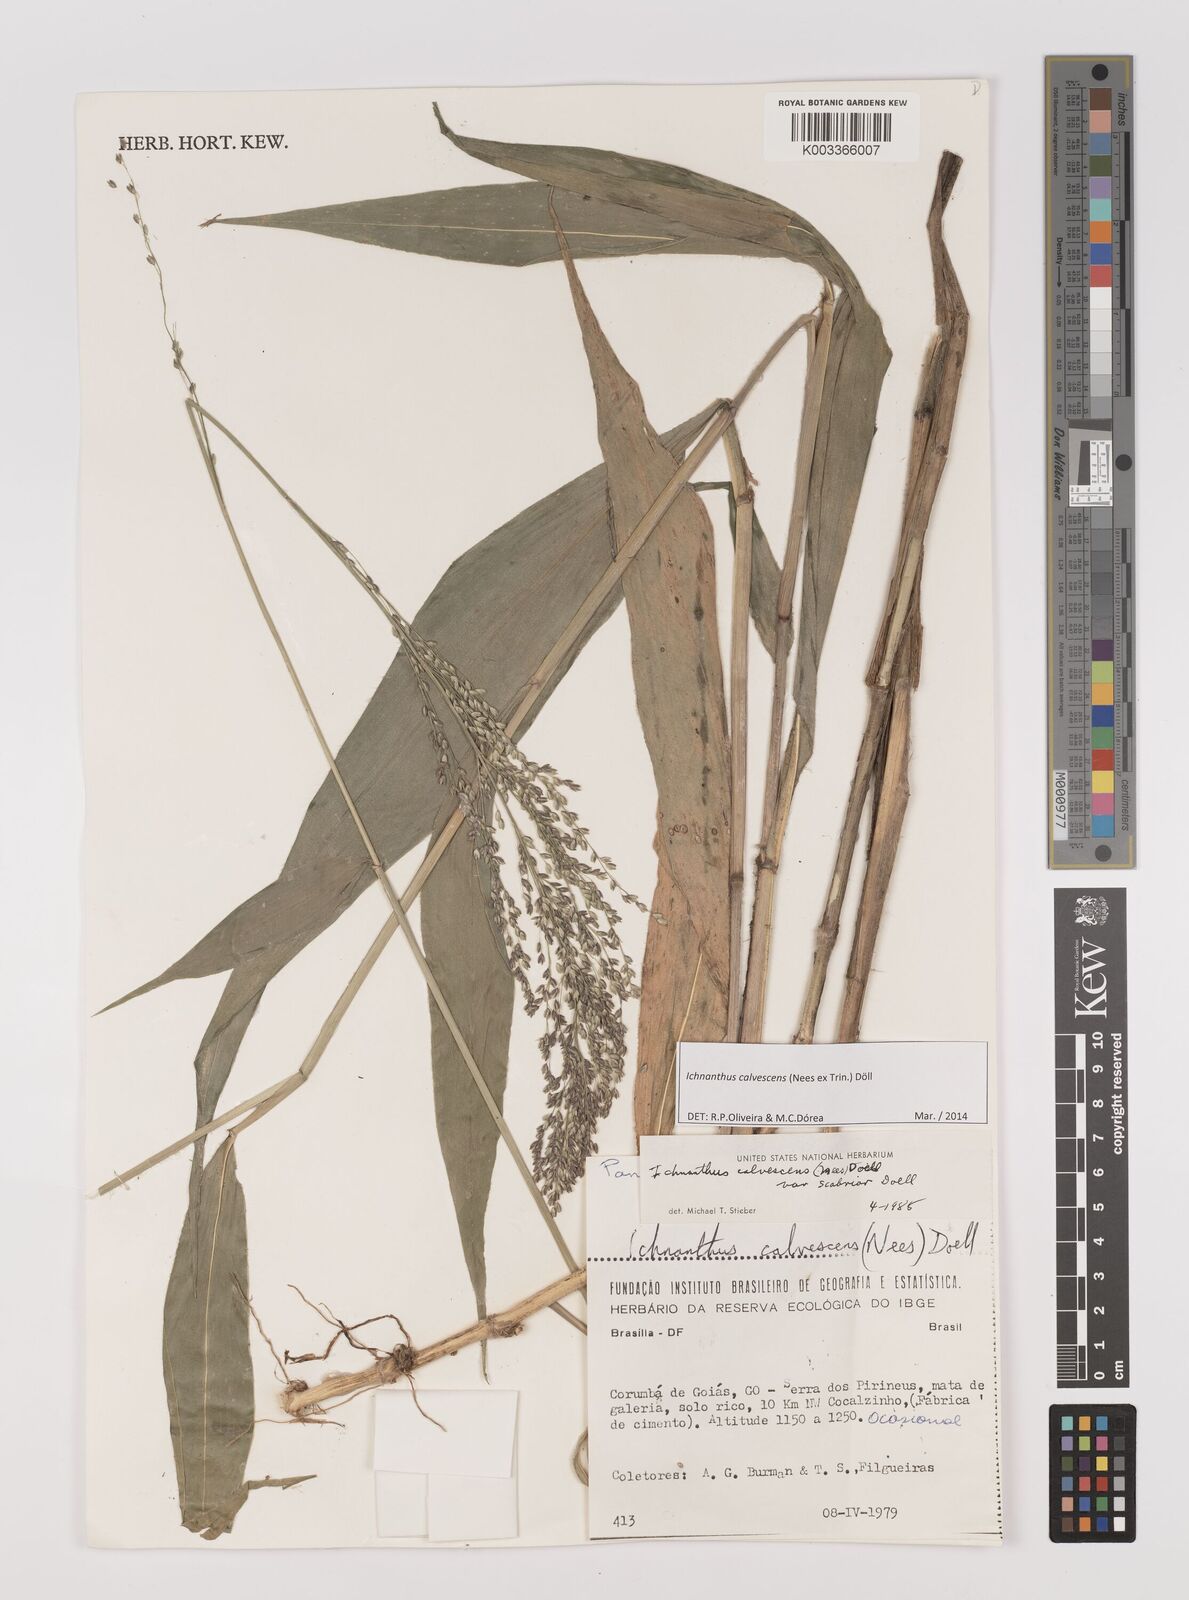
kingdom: Plantae
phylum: Tracheophyta
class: Liliopsida
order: Poales
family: Poaceae
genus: Ichnanthus
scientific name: Ichnanthus calvescens
